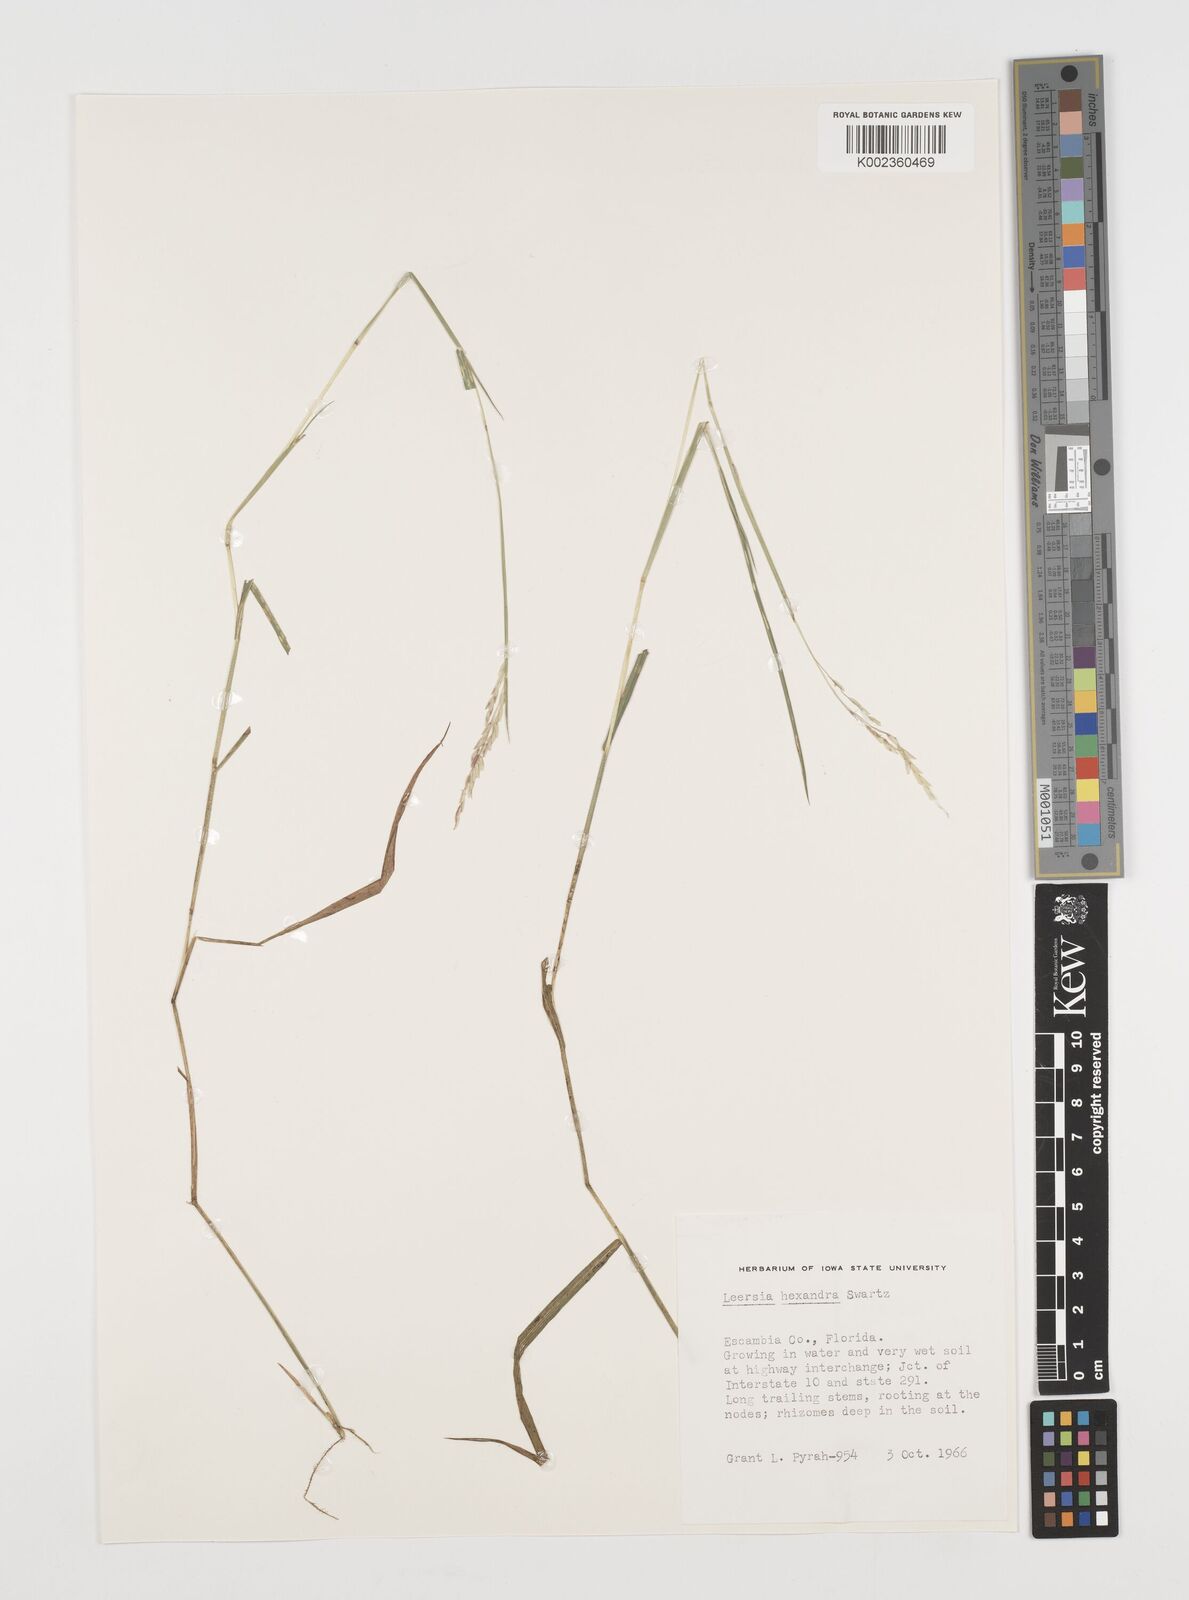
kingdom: Plantae
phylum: Tracheophyta
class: Liliopsida
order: Poales
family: Poaceae
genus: Leersia
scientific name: Leersia hexandra
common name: Southern cut grass
